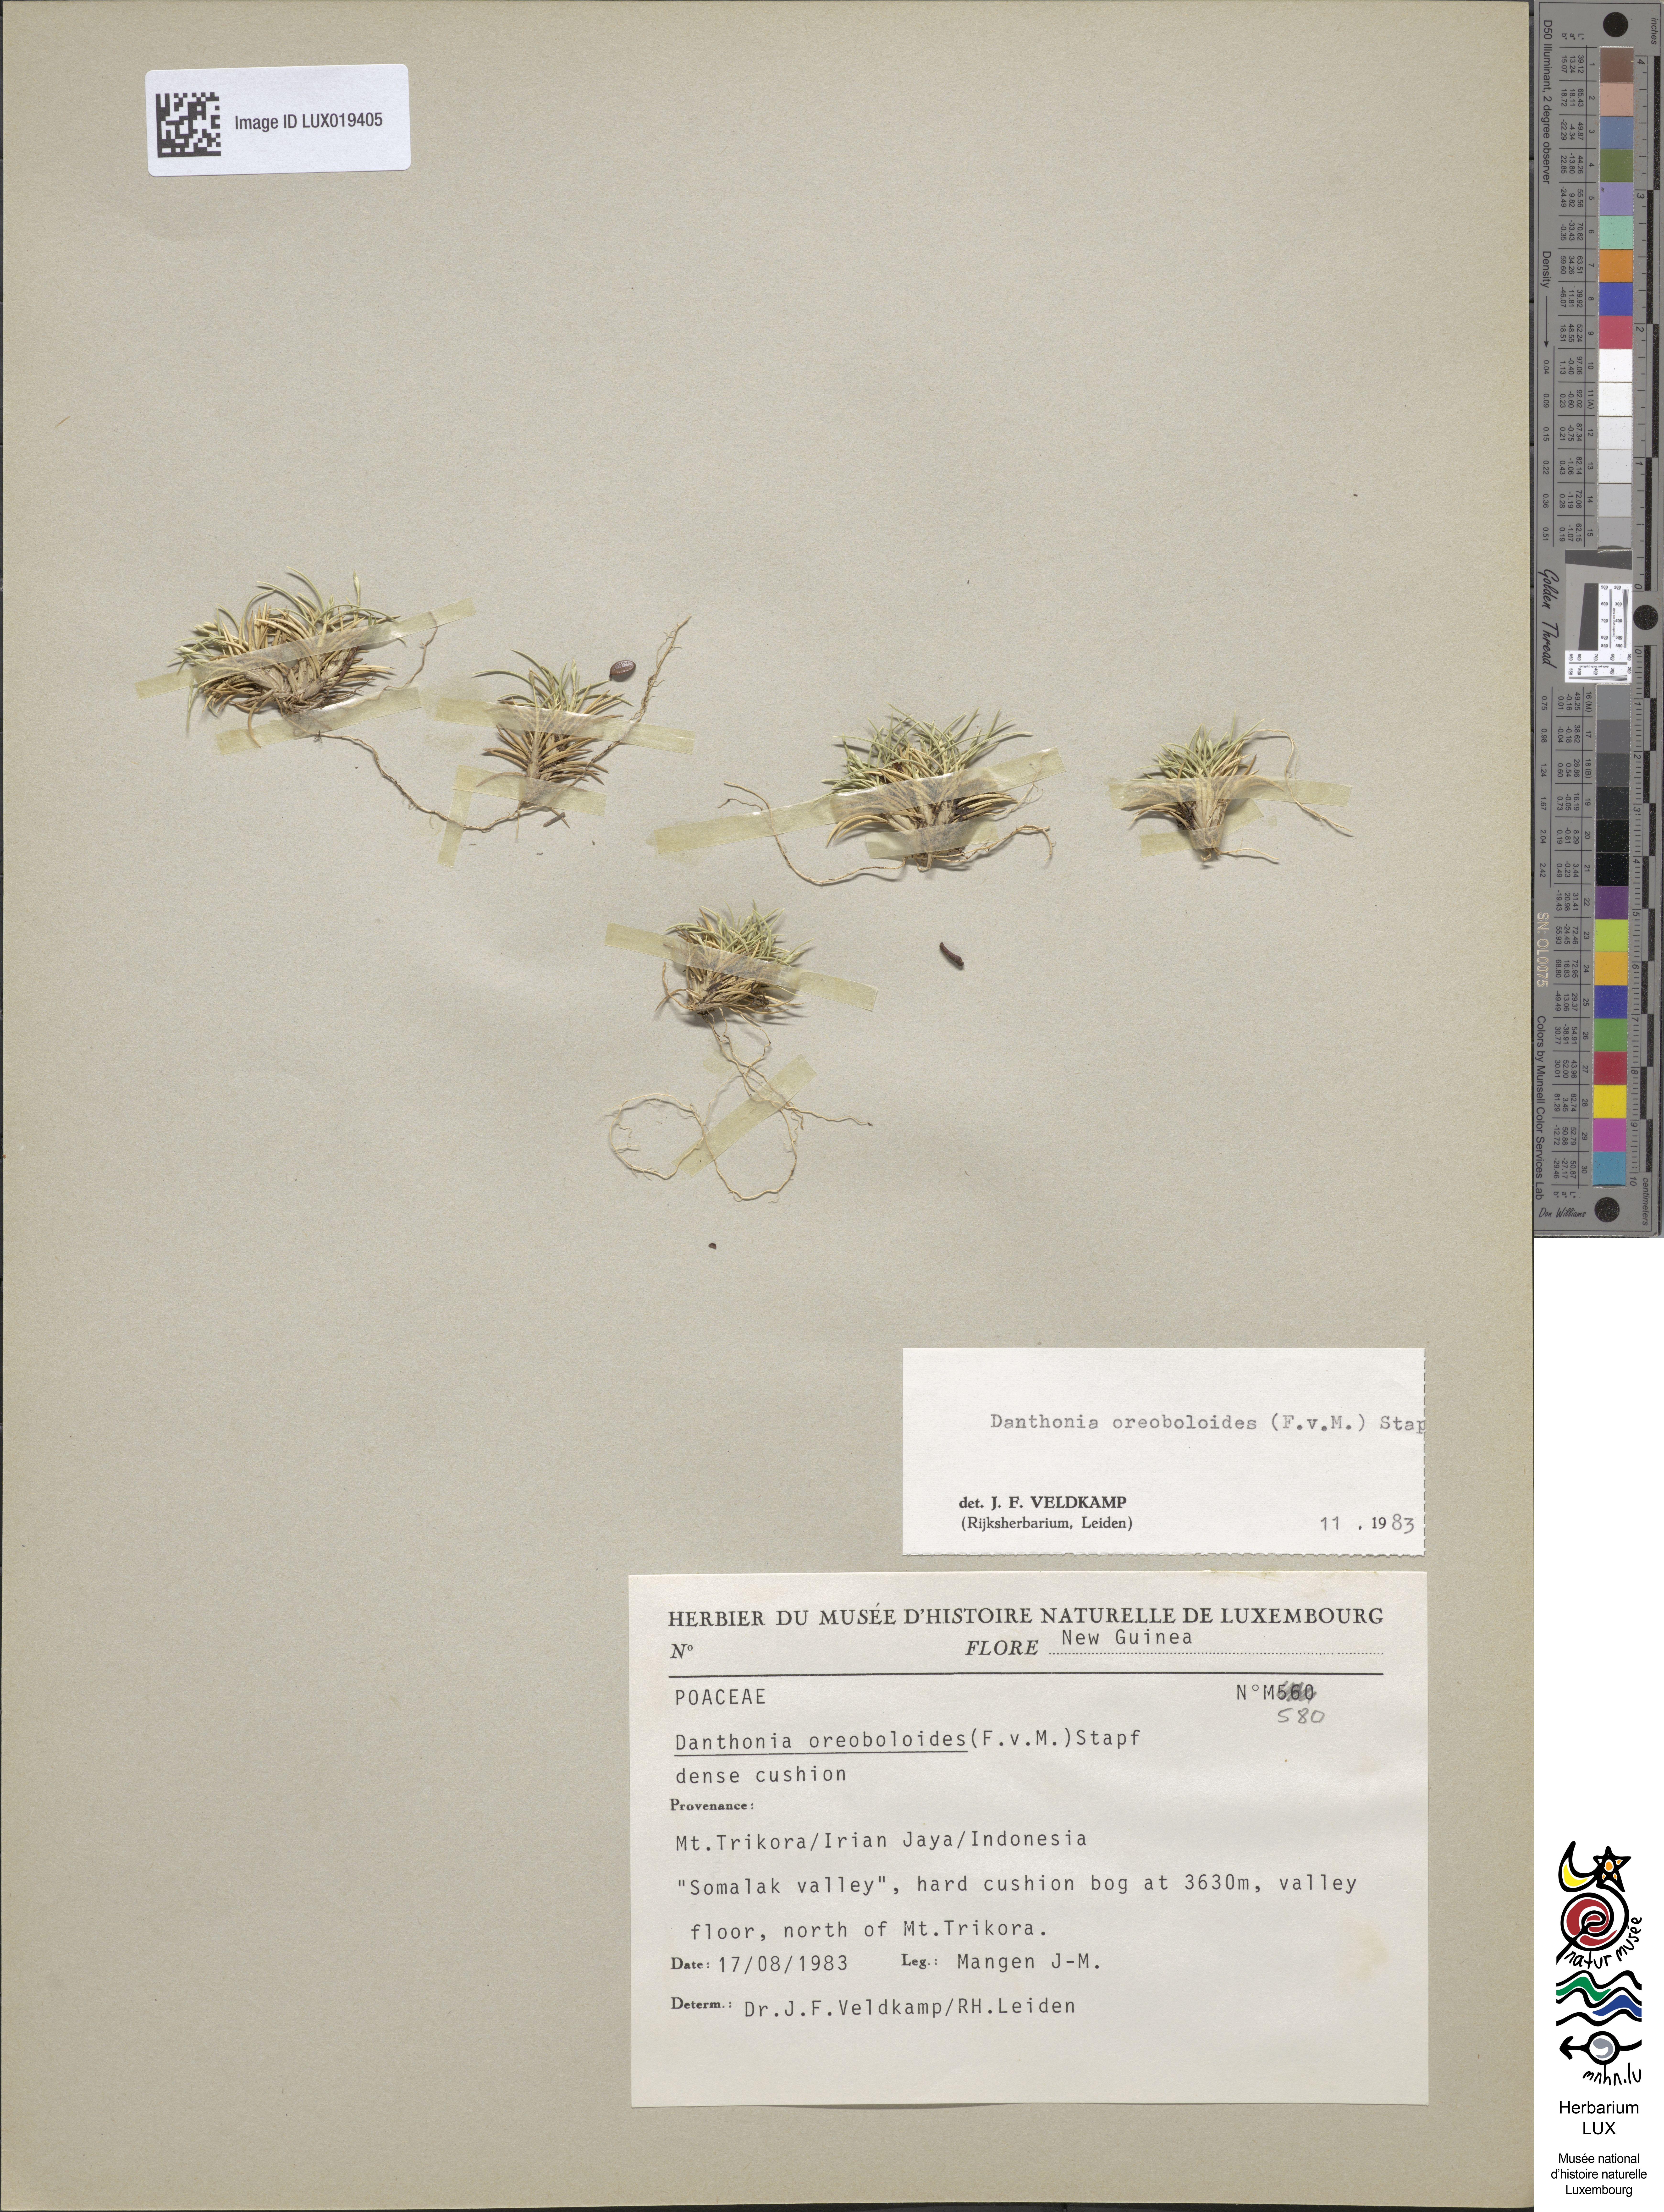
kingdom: Plantae
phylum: Tracheophyta
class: Liliopsida
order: Poales
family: Poaceae
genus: Rytidosperma
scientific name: Rytidosperma oreoboloides
